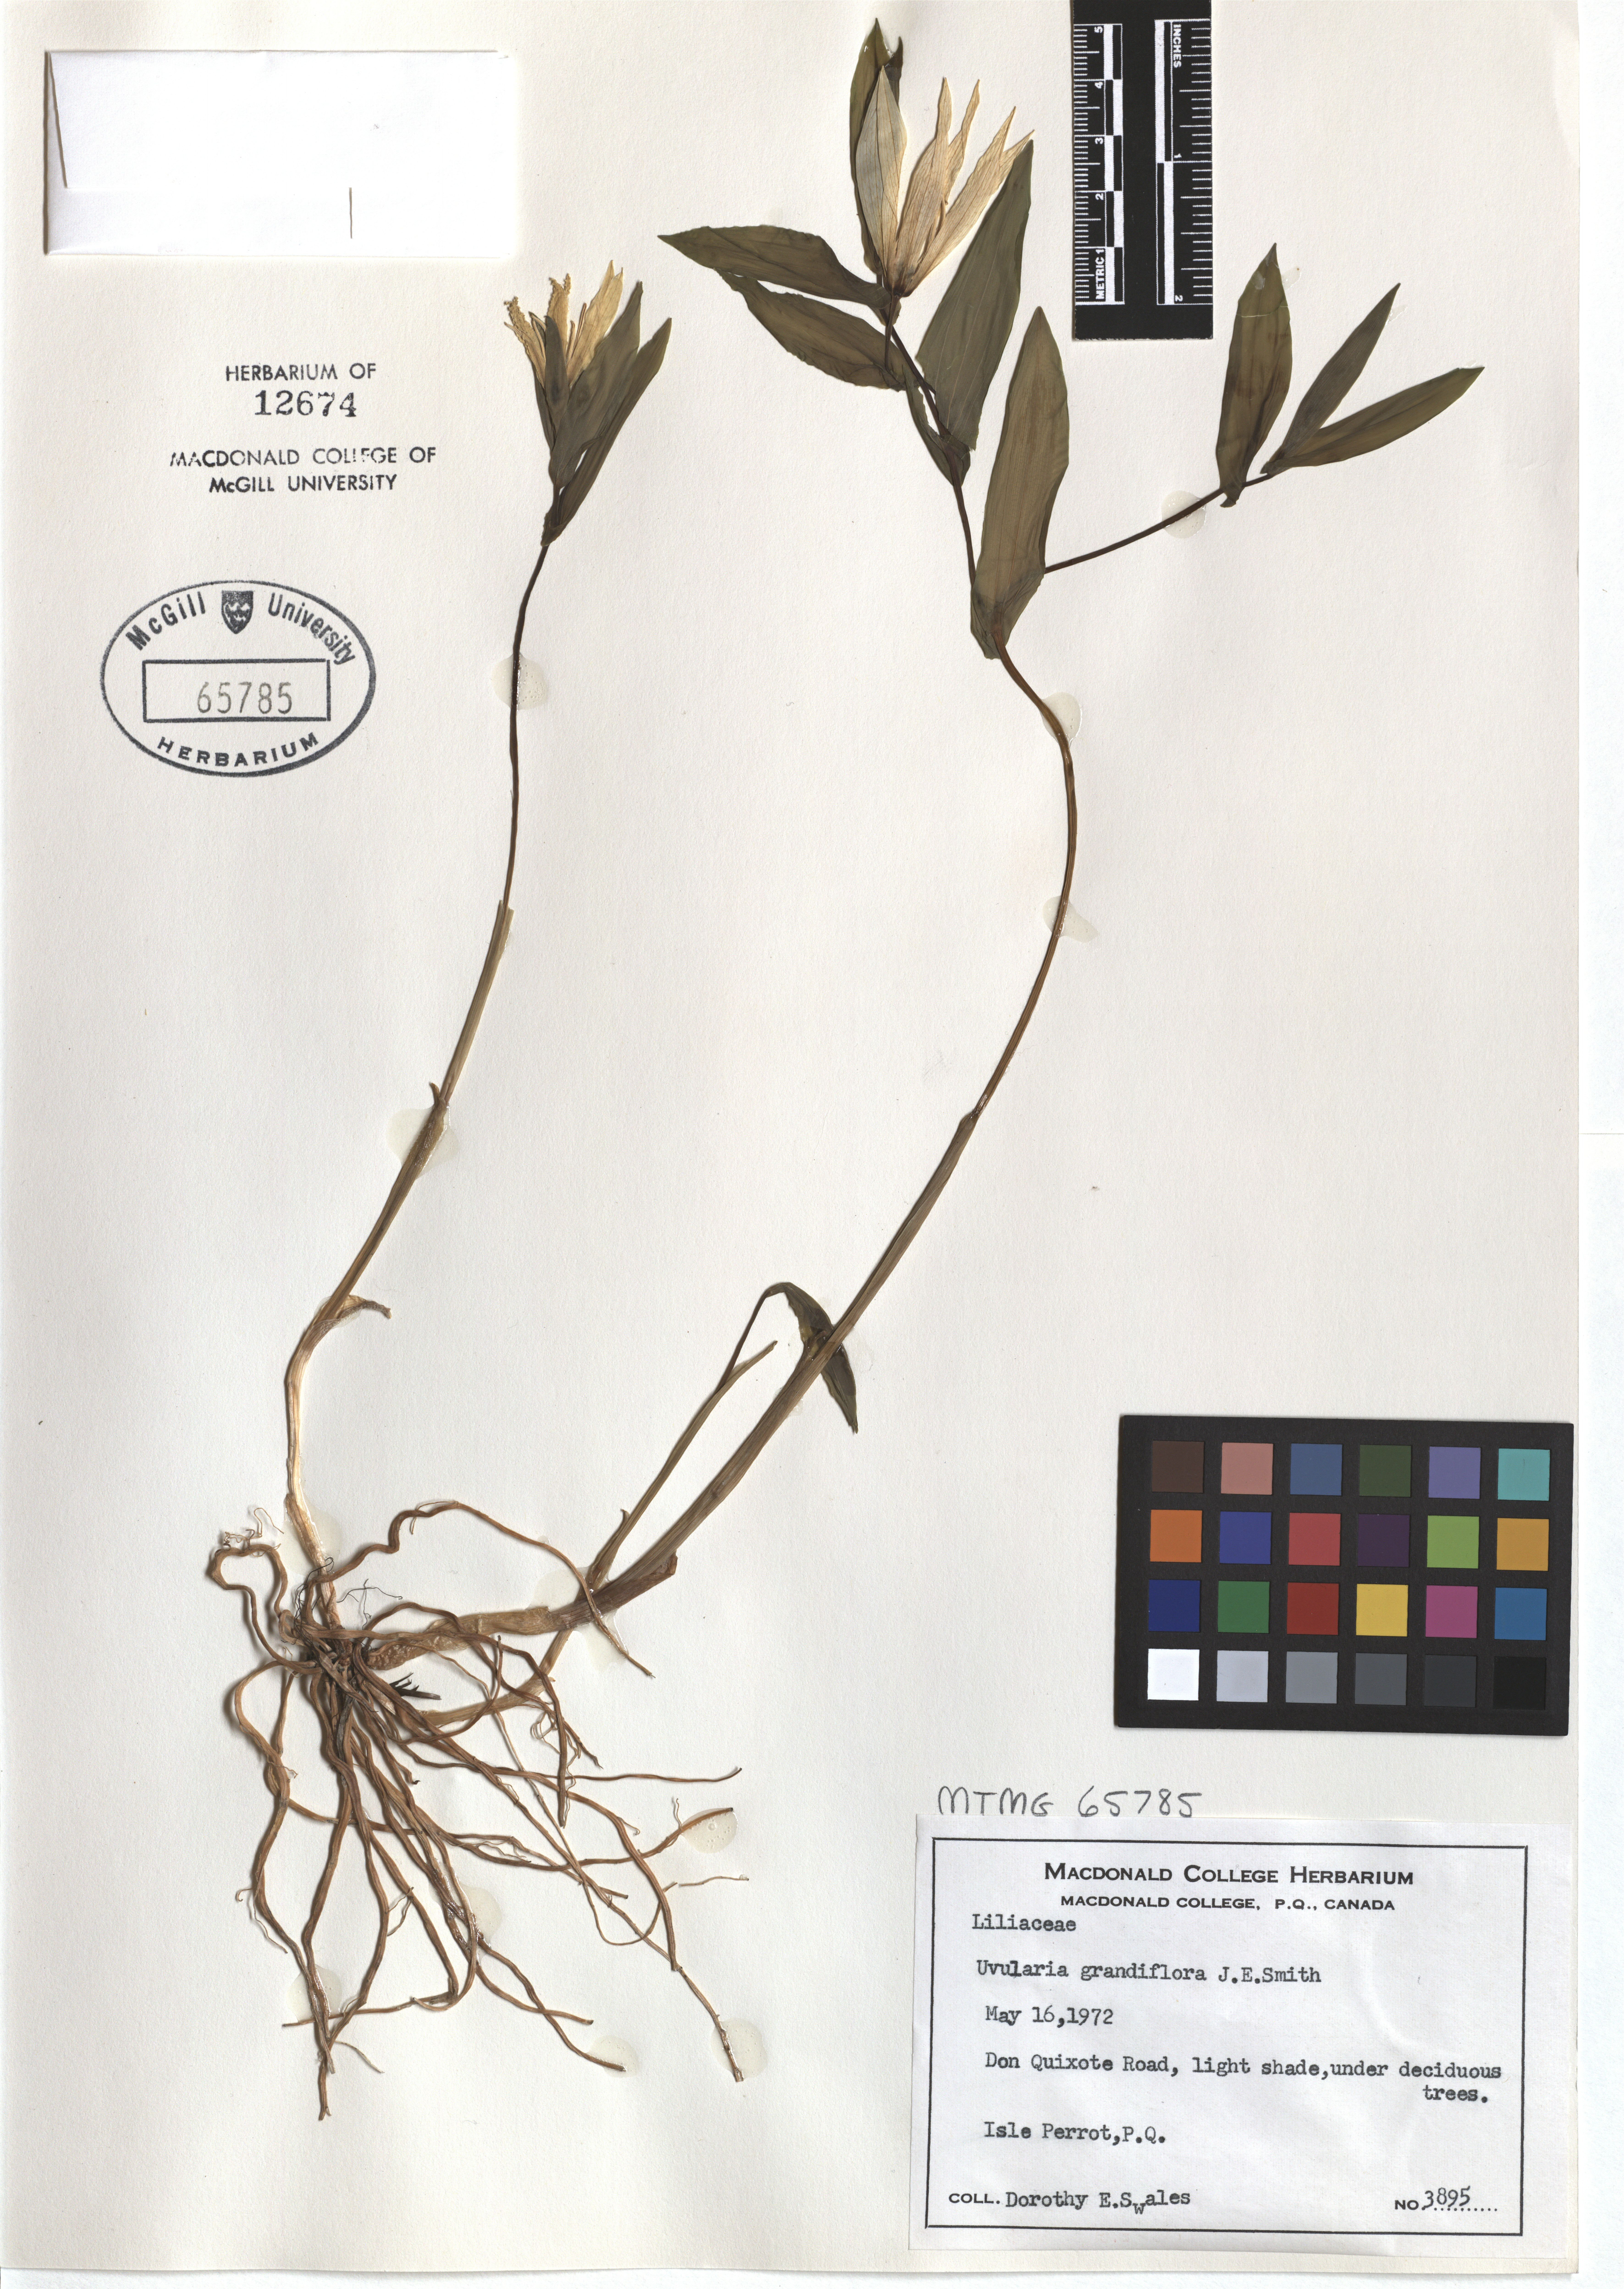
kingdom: Plantae
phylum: Tracheophyta
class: Liliopsida
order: Liliales
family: Colchicaceae
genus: Uvularia
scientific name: Uvularia grandiflora
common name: Bellwort
